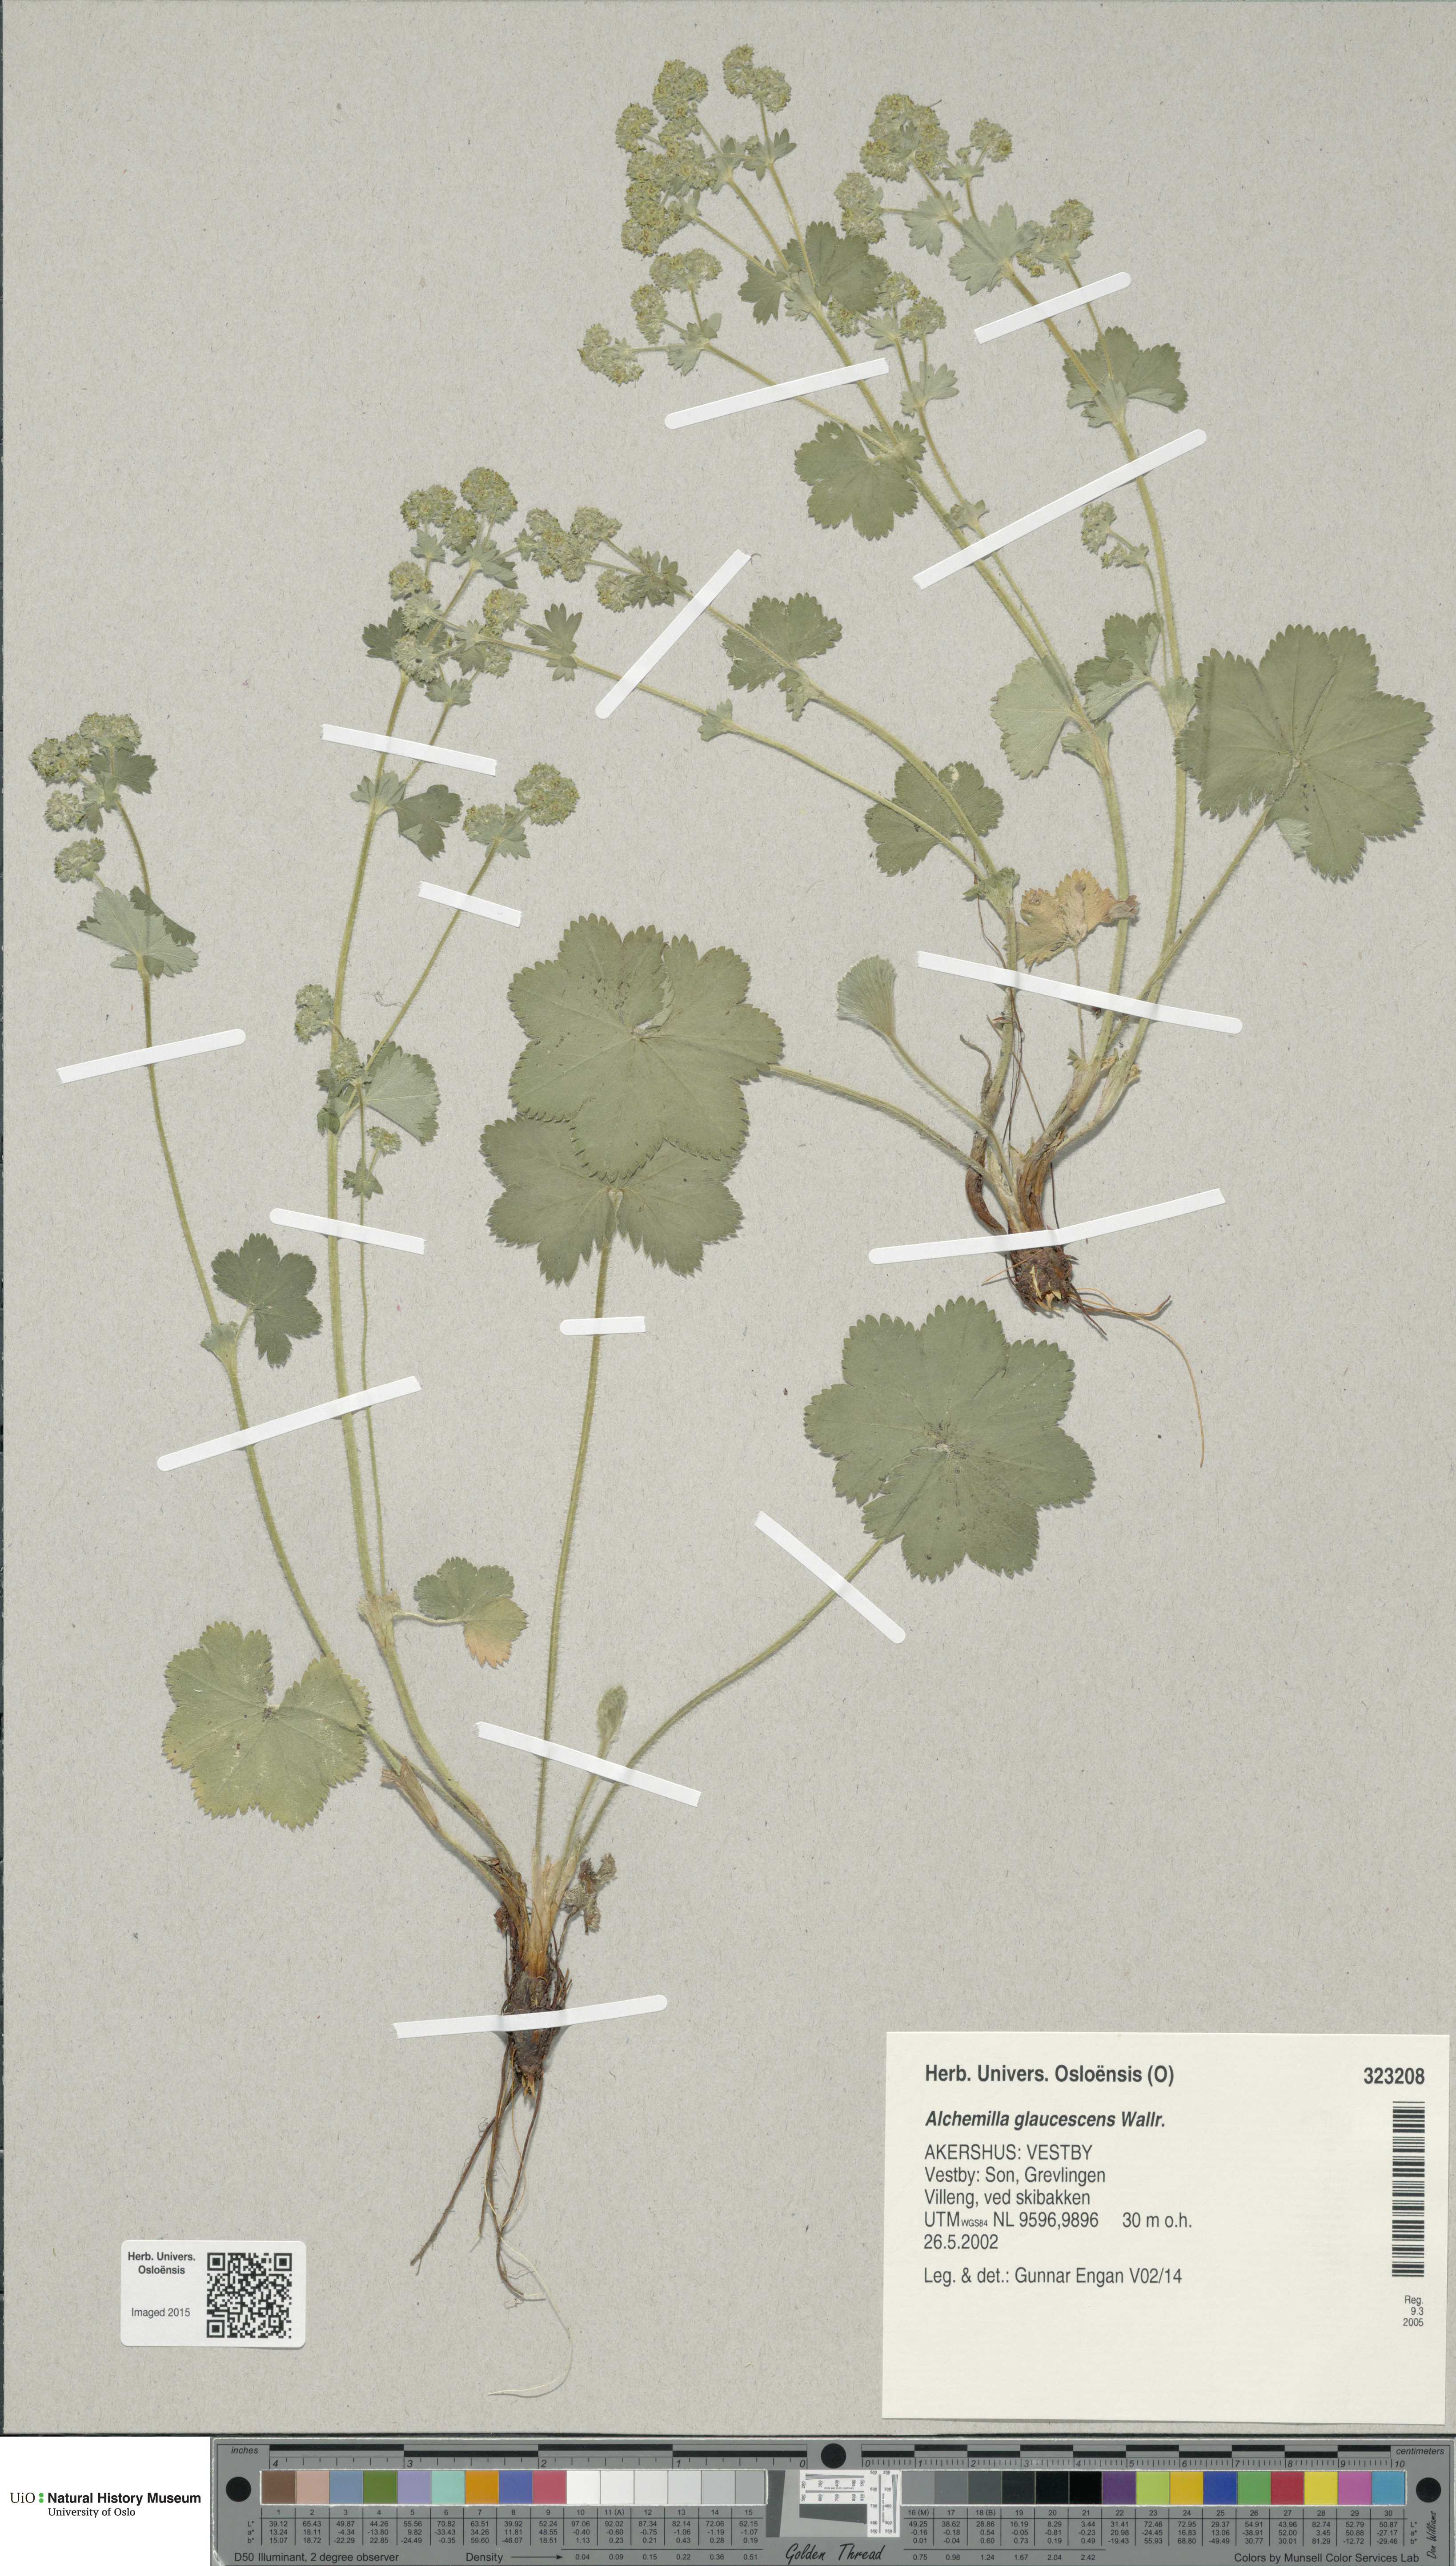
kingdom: Plantae
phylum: Tracheophyta
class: Magnoliopsida
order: Rosales
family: Rosaceae
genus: Alchemilla
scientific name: Alchemilla glaucescens
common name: Silky lady's mantle
